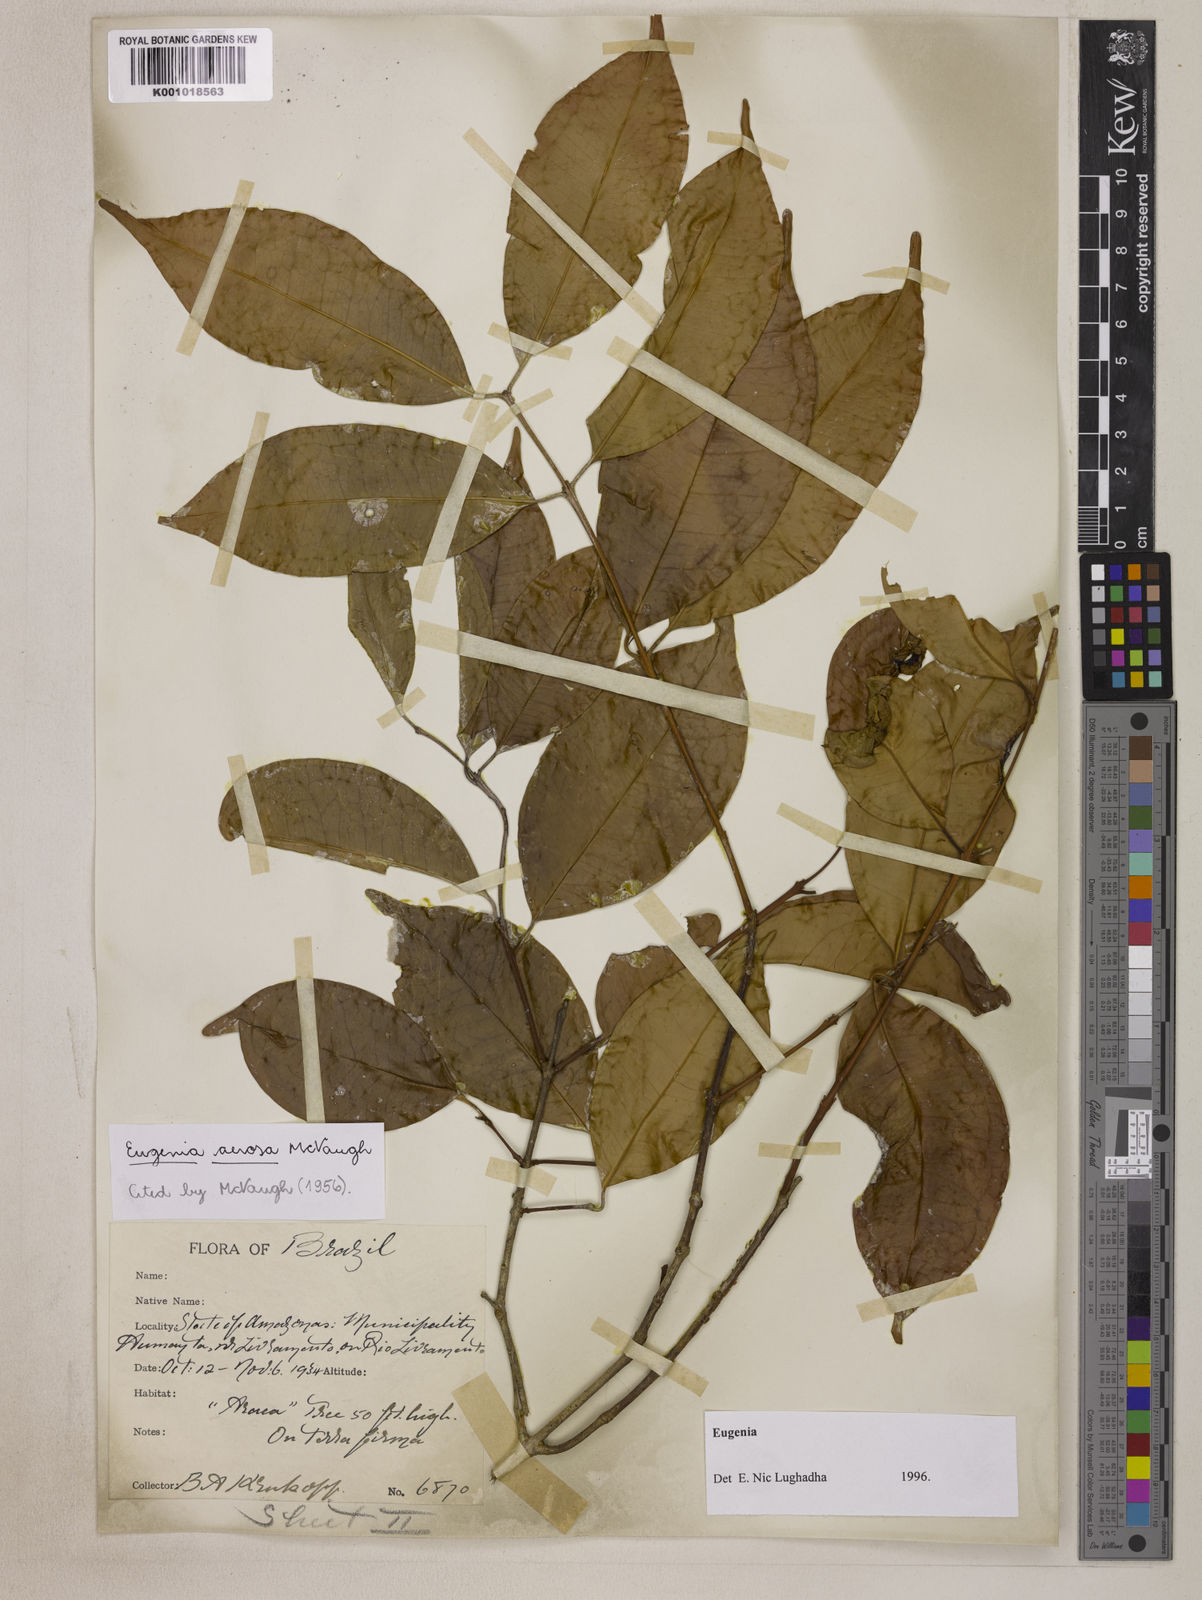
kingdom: Plantae
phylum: Tracheophyta
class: Magnoliopsida
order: Myrtales
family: Myrtaceae
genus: Eugenia
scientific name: Eugenia aerosa
